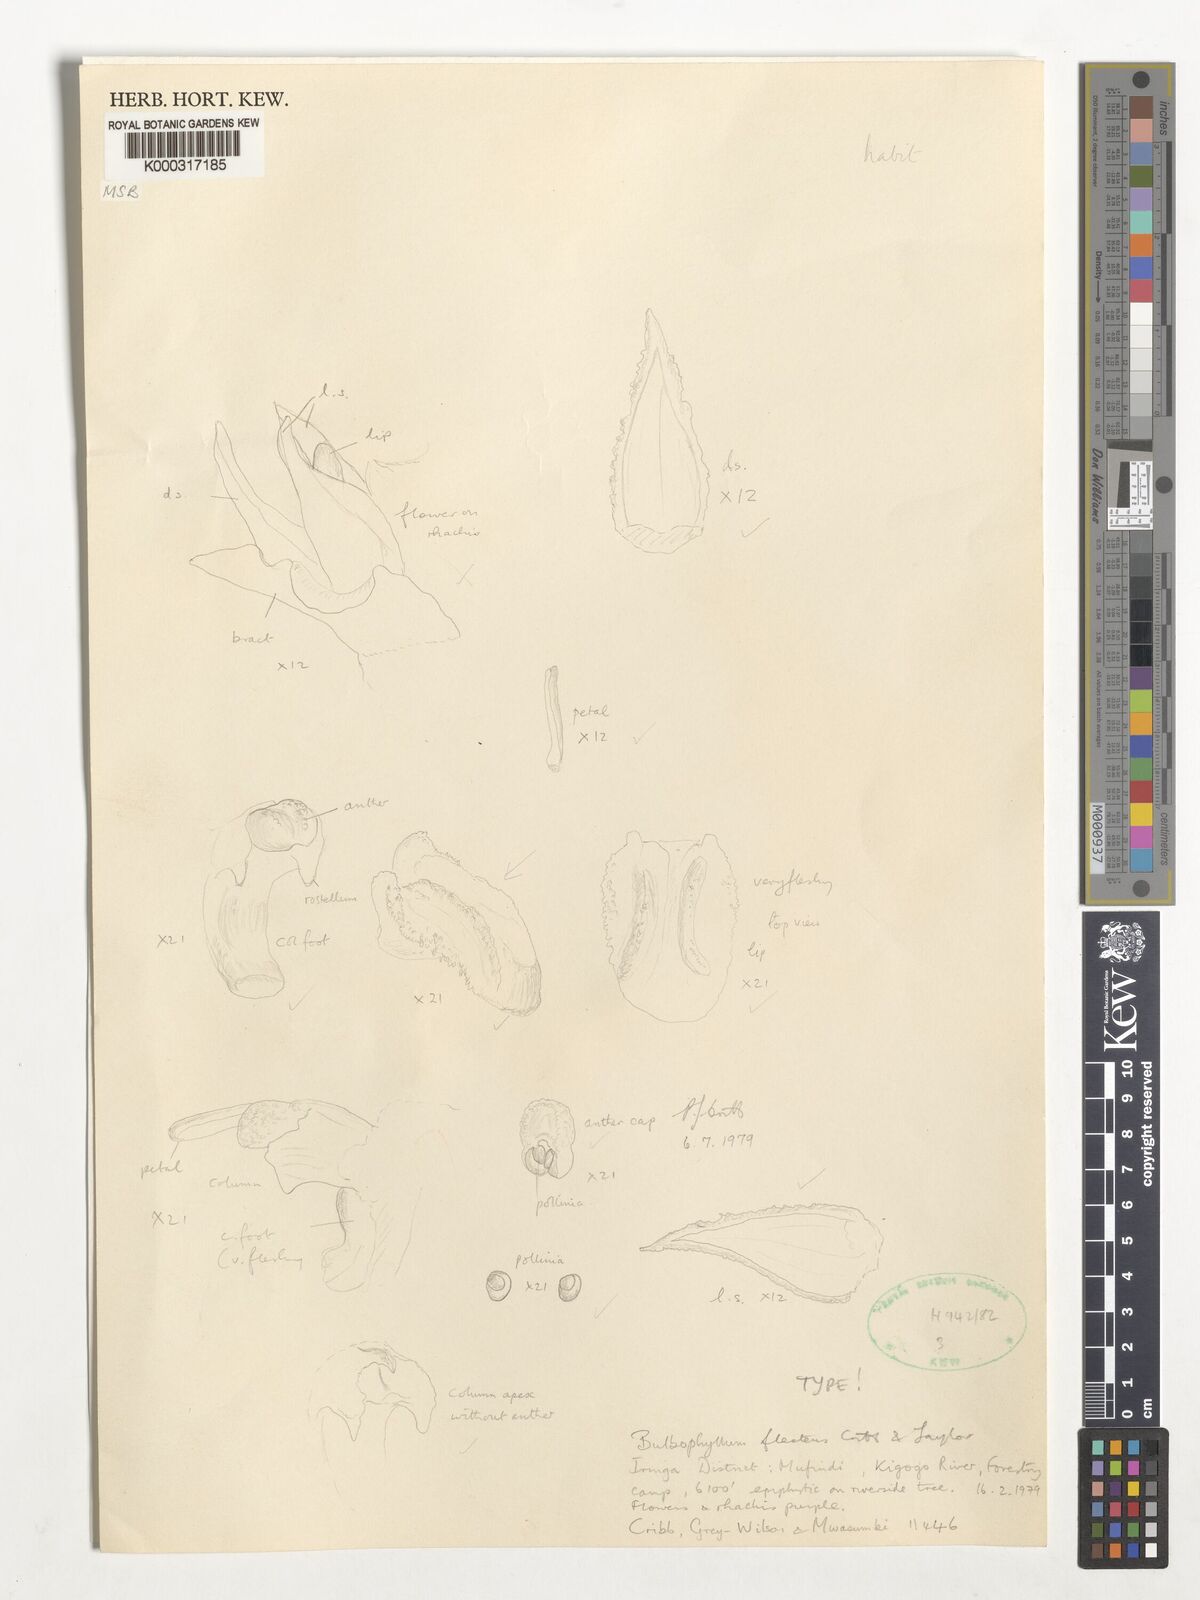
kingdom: Plantae
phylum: Tracheophyta
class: Liliopsida
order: Asparagales
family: Orchidaceae
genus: Bulbophyllum
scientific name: Bulbophyllum unifoliatum
